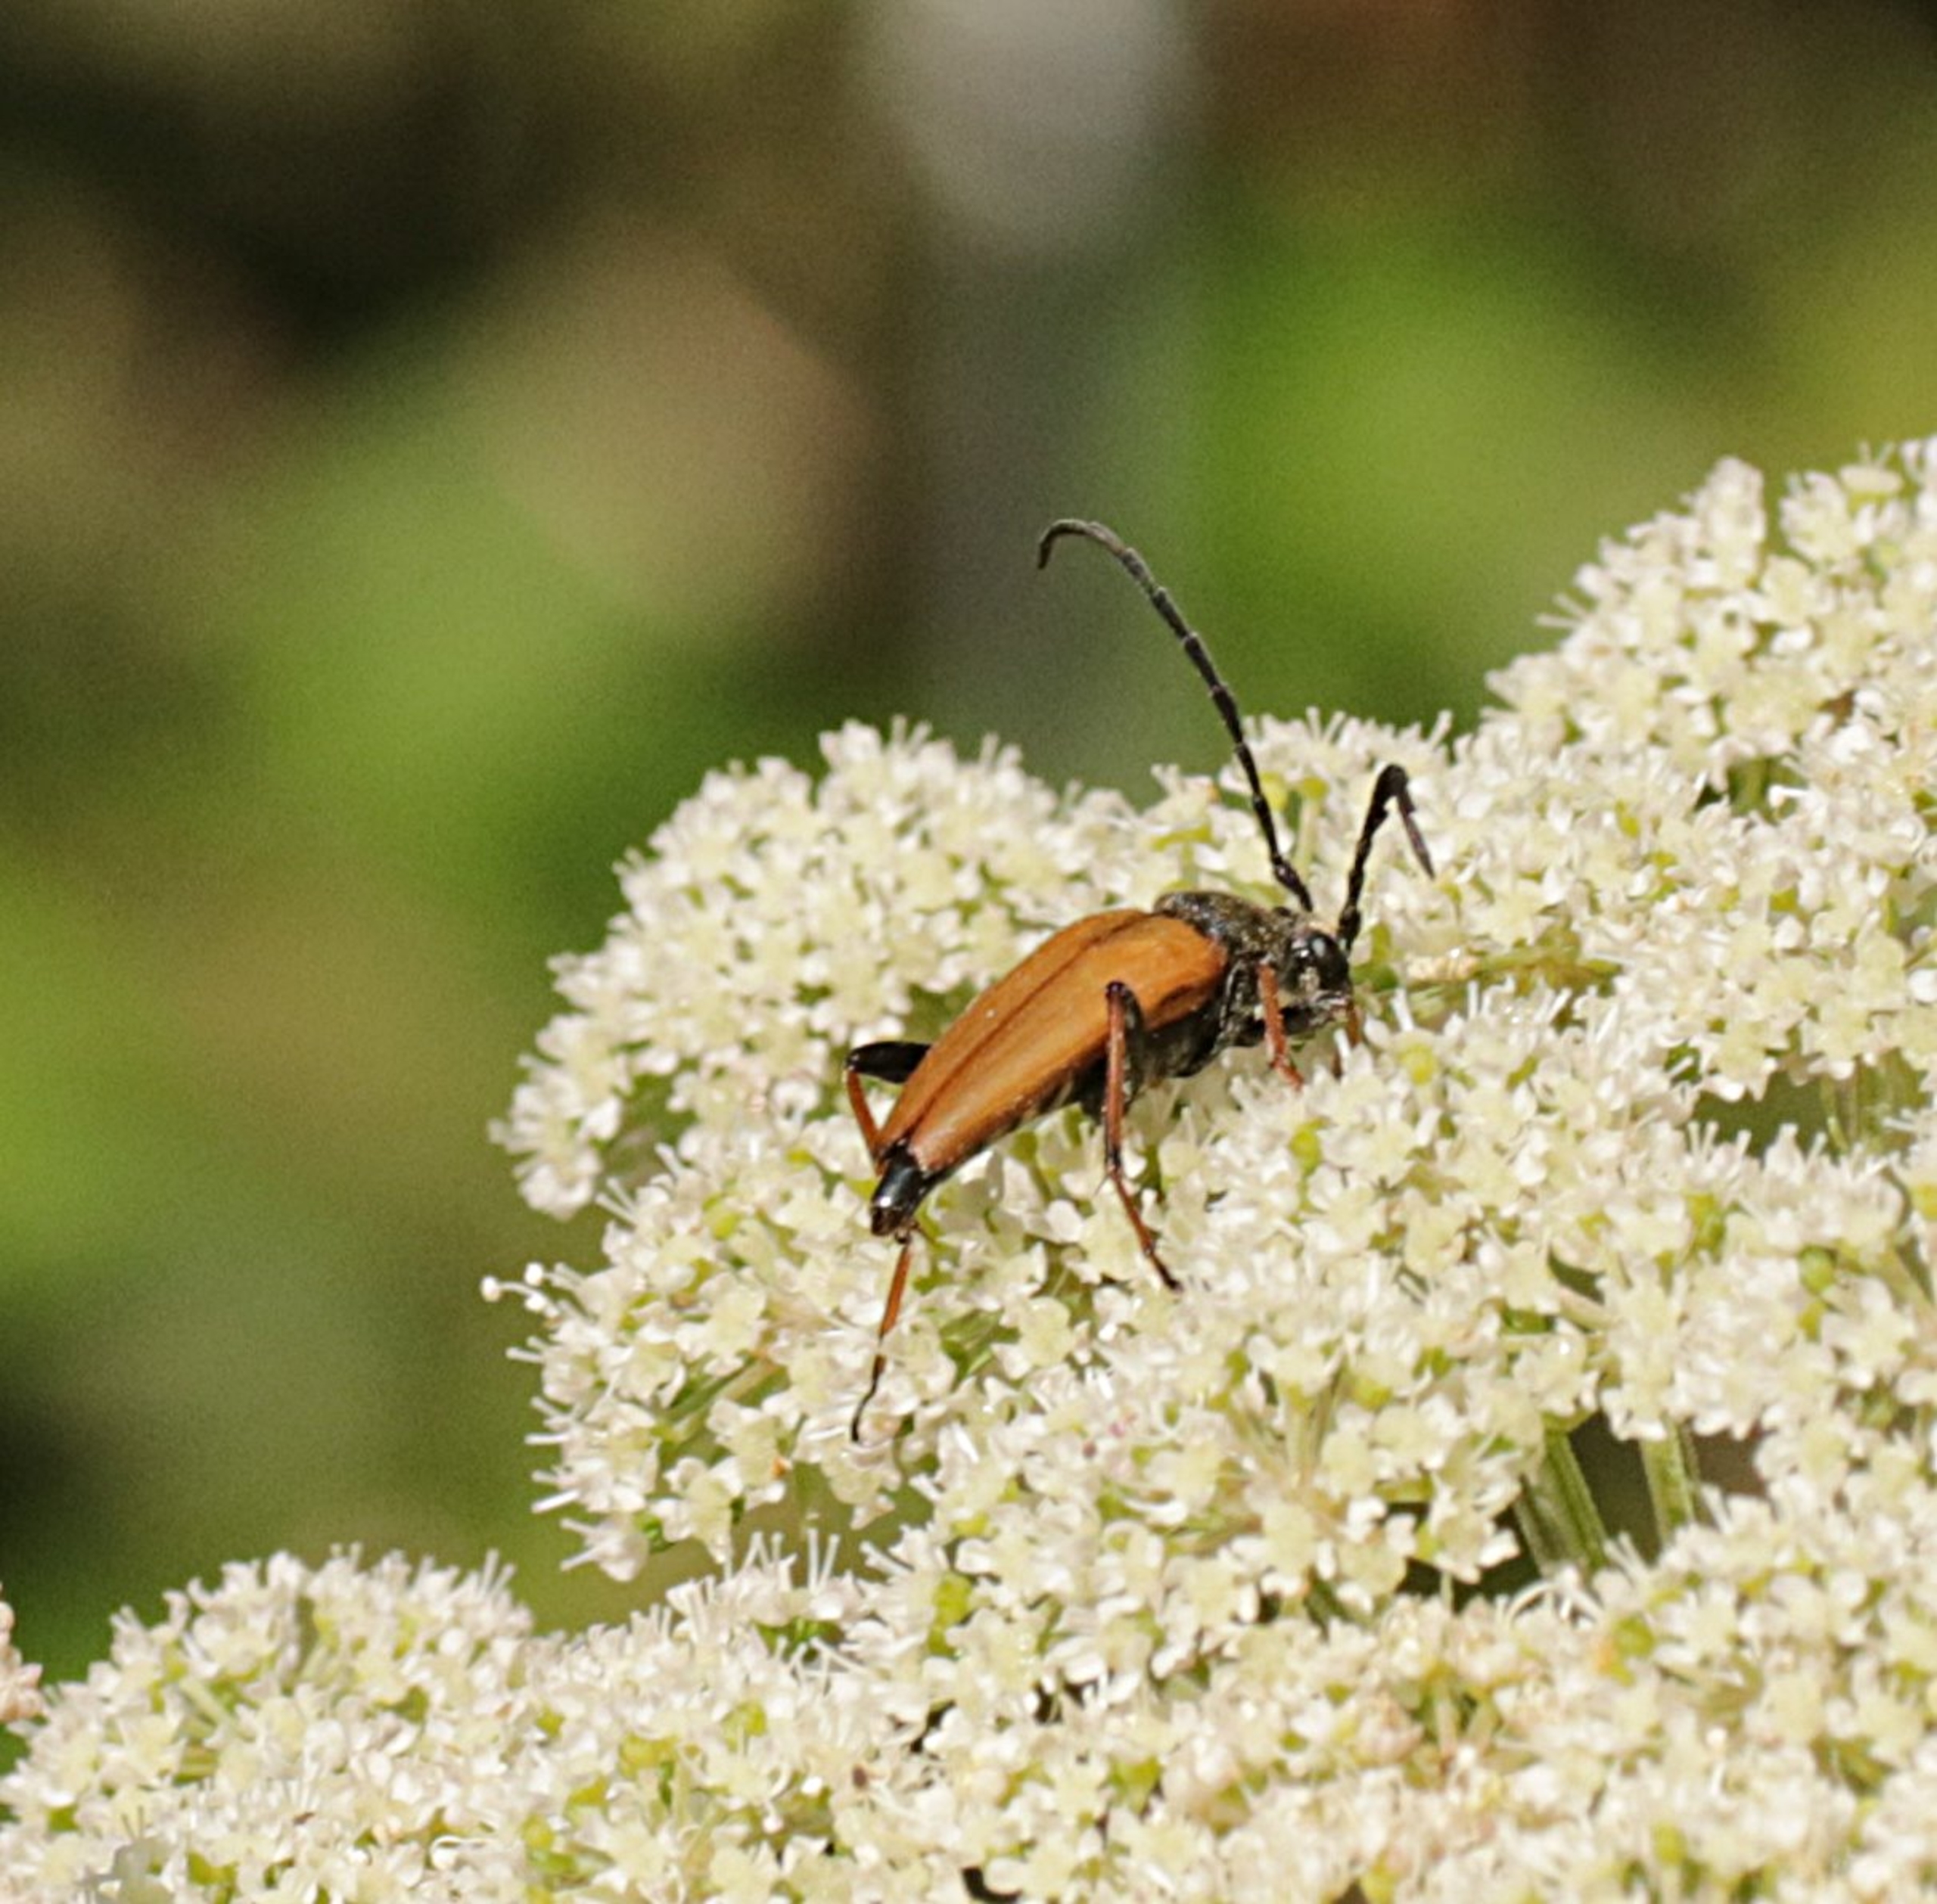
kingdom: Animalia
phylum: Arthropoda
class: Insecta
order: Coleoptera
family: Cerambycidae
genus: Stictoleptura
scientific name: Stictoleptura rubra
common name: Rød blomsterbuk
